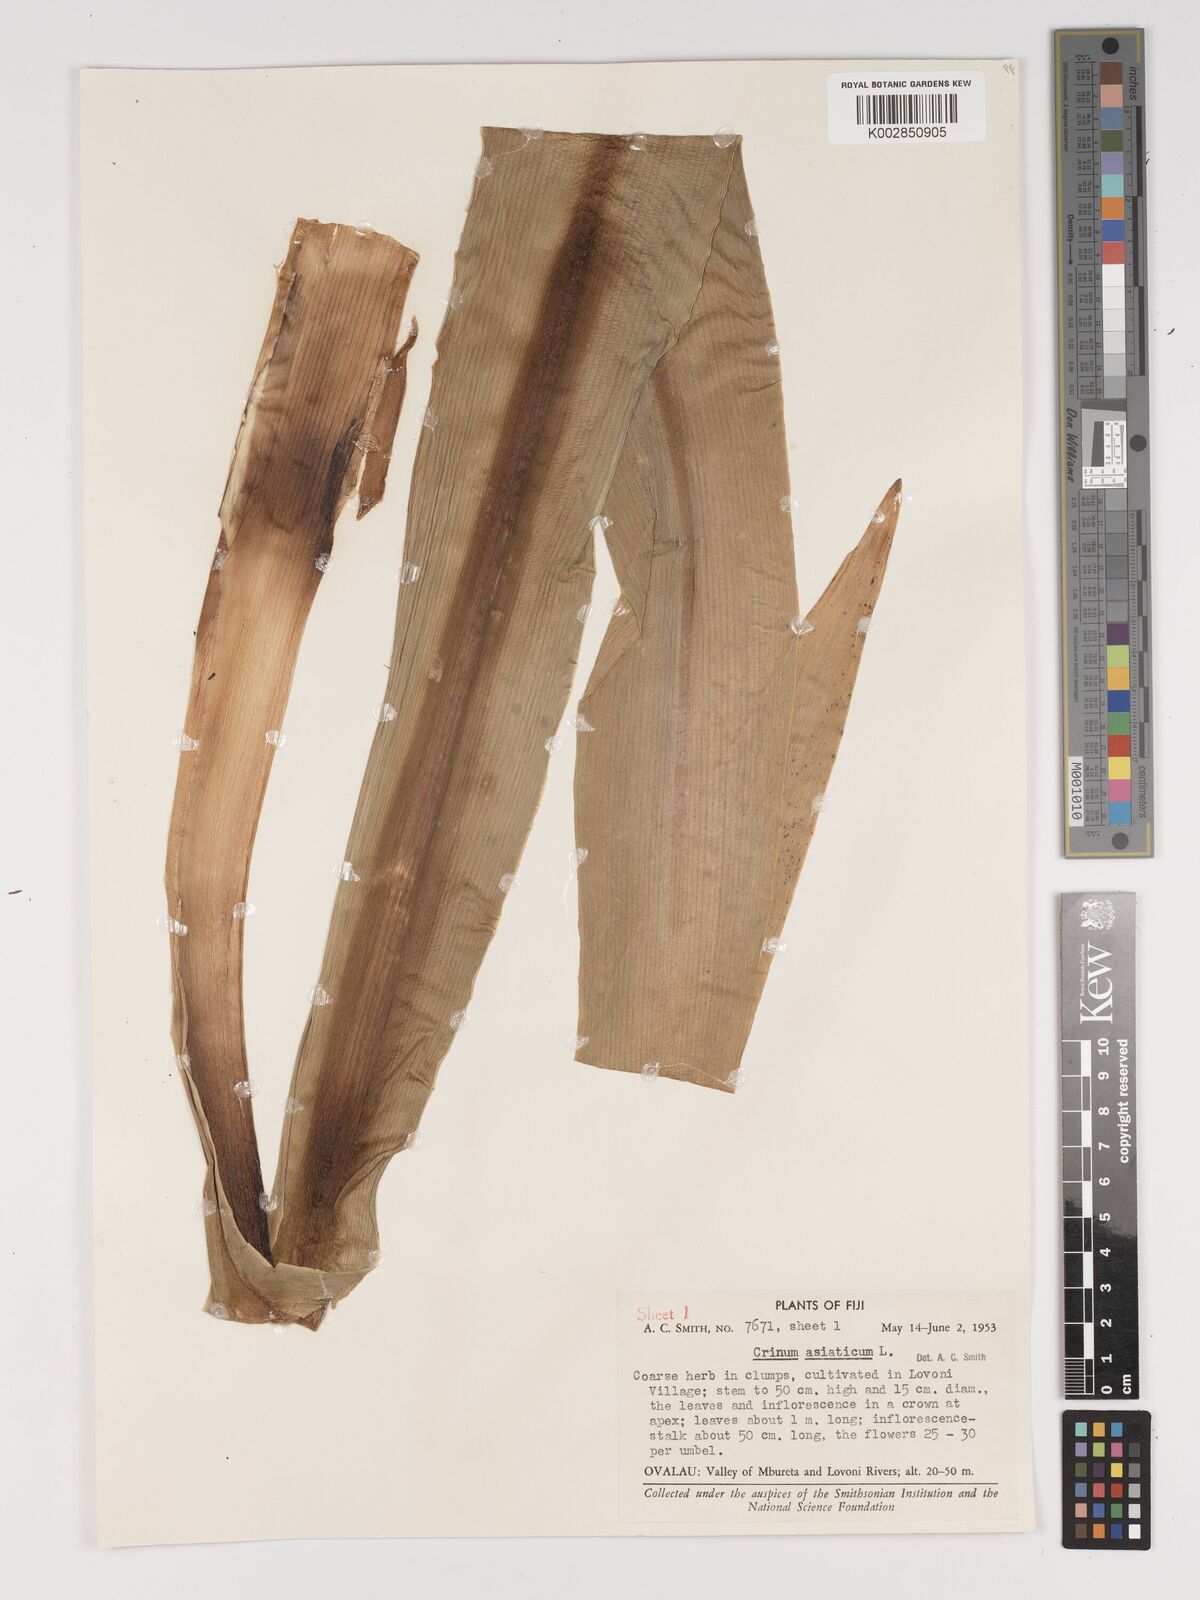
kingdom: Plantae
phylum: Tracheophyta
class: Liliopsida
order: Asparagales
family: Amaryllidaceae
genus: Crinum
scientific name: Crinum asiaticum
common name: Poisonbulb
